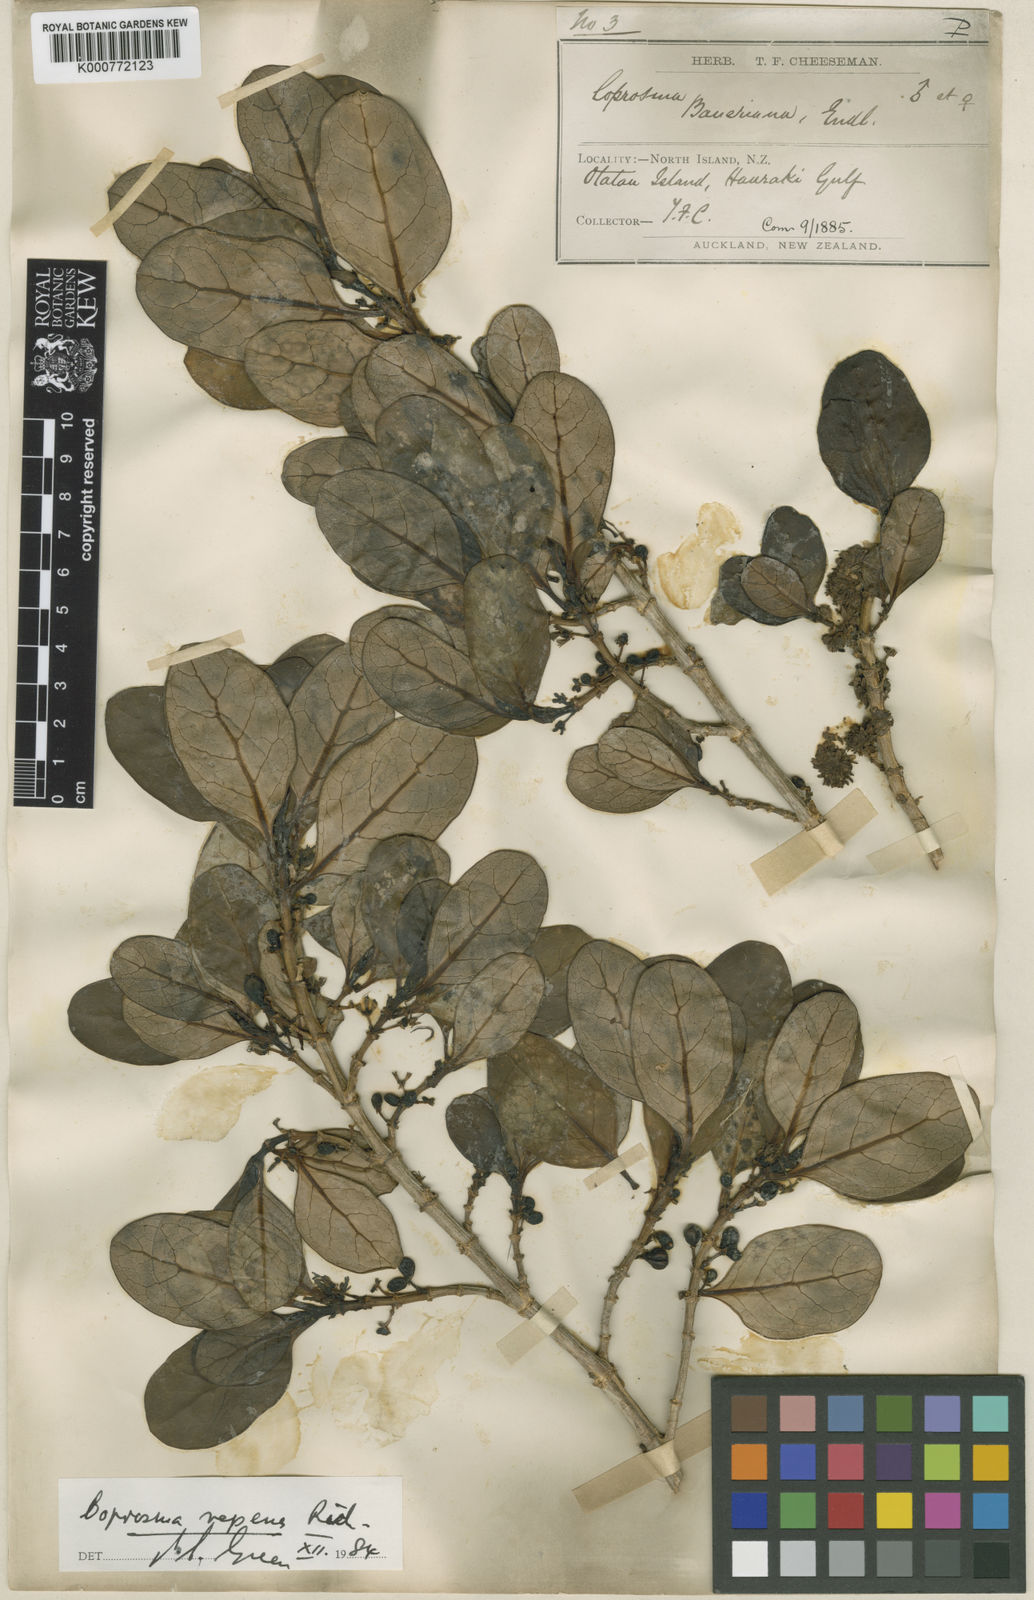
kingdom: Plantae
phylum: Tracheophyta
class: Magnoliopsida
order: Gentianales
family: Rubiaceae
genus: Coprosma
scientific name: Coprosma repens
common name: Tree bedstraw
